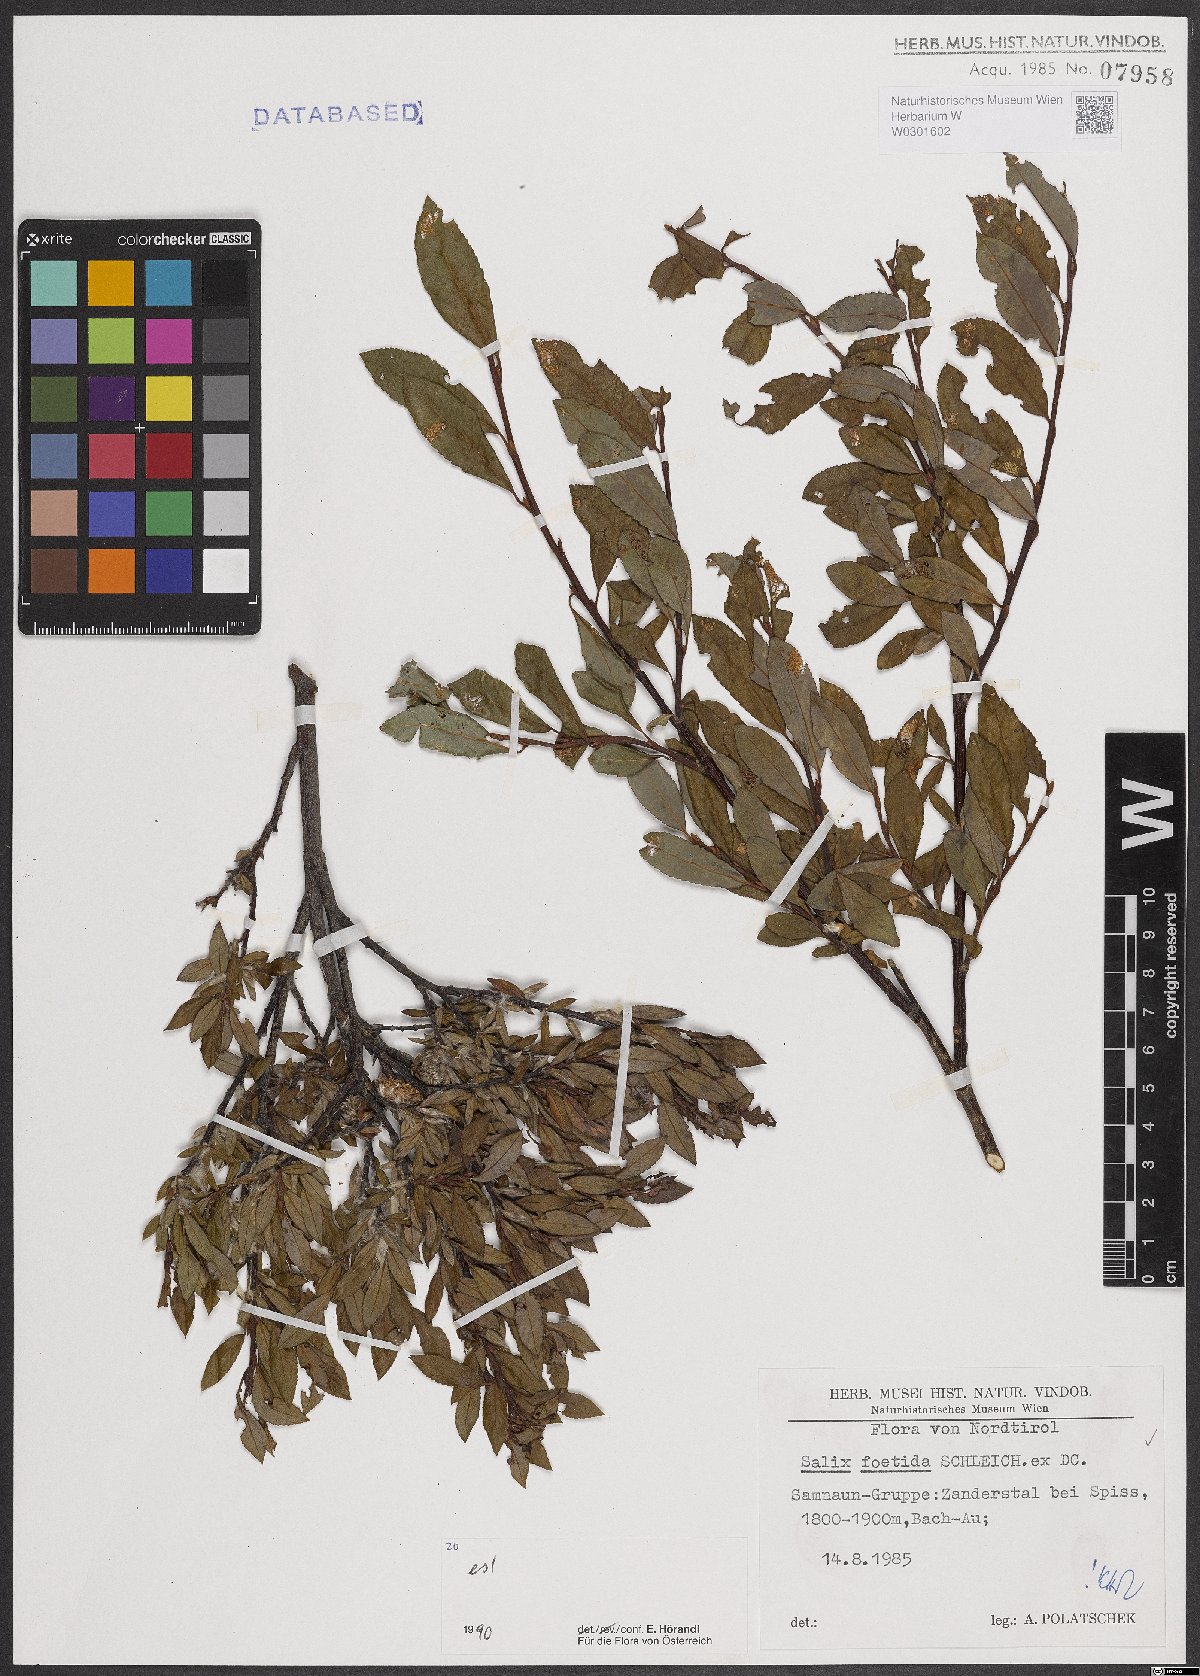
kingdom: Plantae
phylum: Tracheophyta
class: Magnoliopsida
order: Malpighiales
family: Salicaceae
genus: Salix
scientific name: Salix foetida
